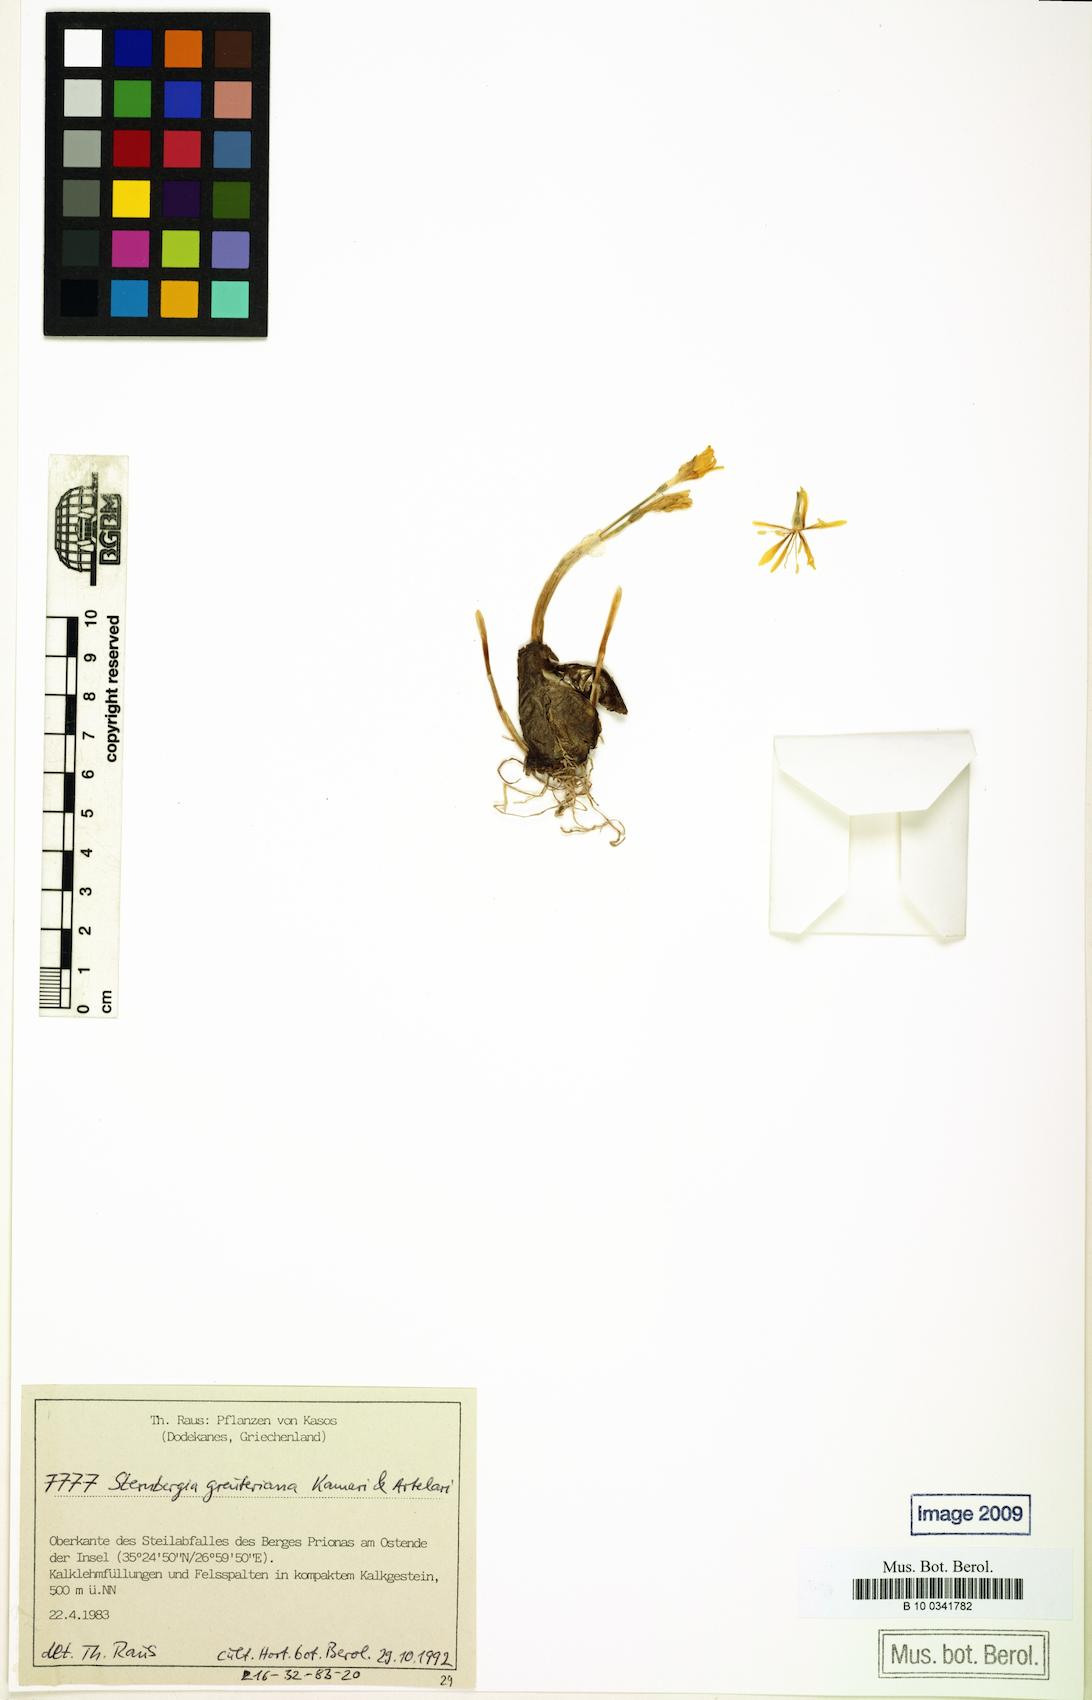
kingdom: Plantae
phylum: Tracheophyta
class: Liliopsida
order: Asparagales
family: Amaryllidaceae
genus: Sternbergia
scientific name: Sternbergia lutea
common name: Winter daffodil
